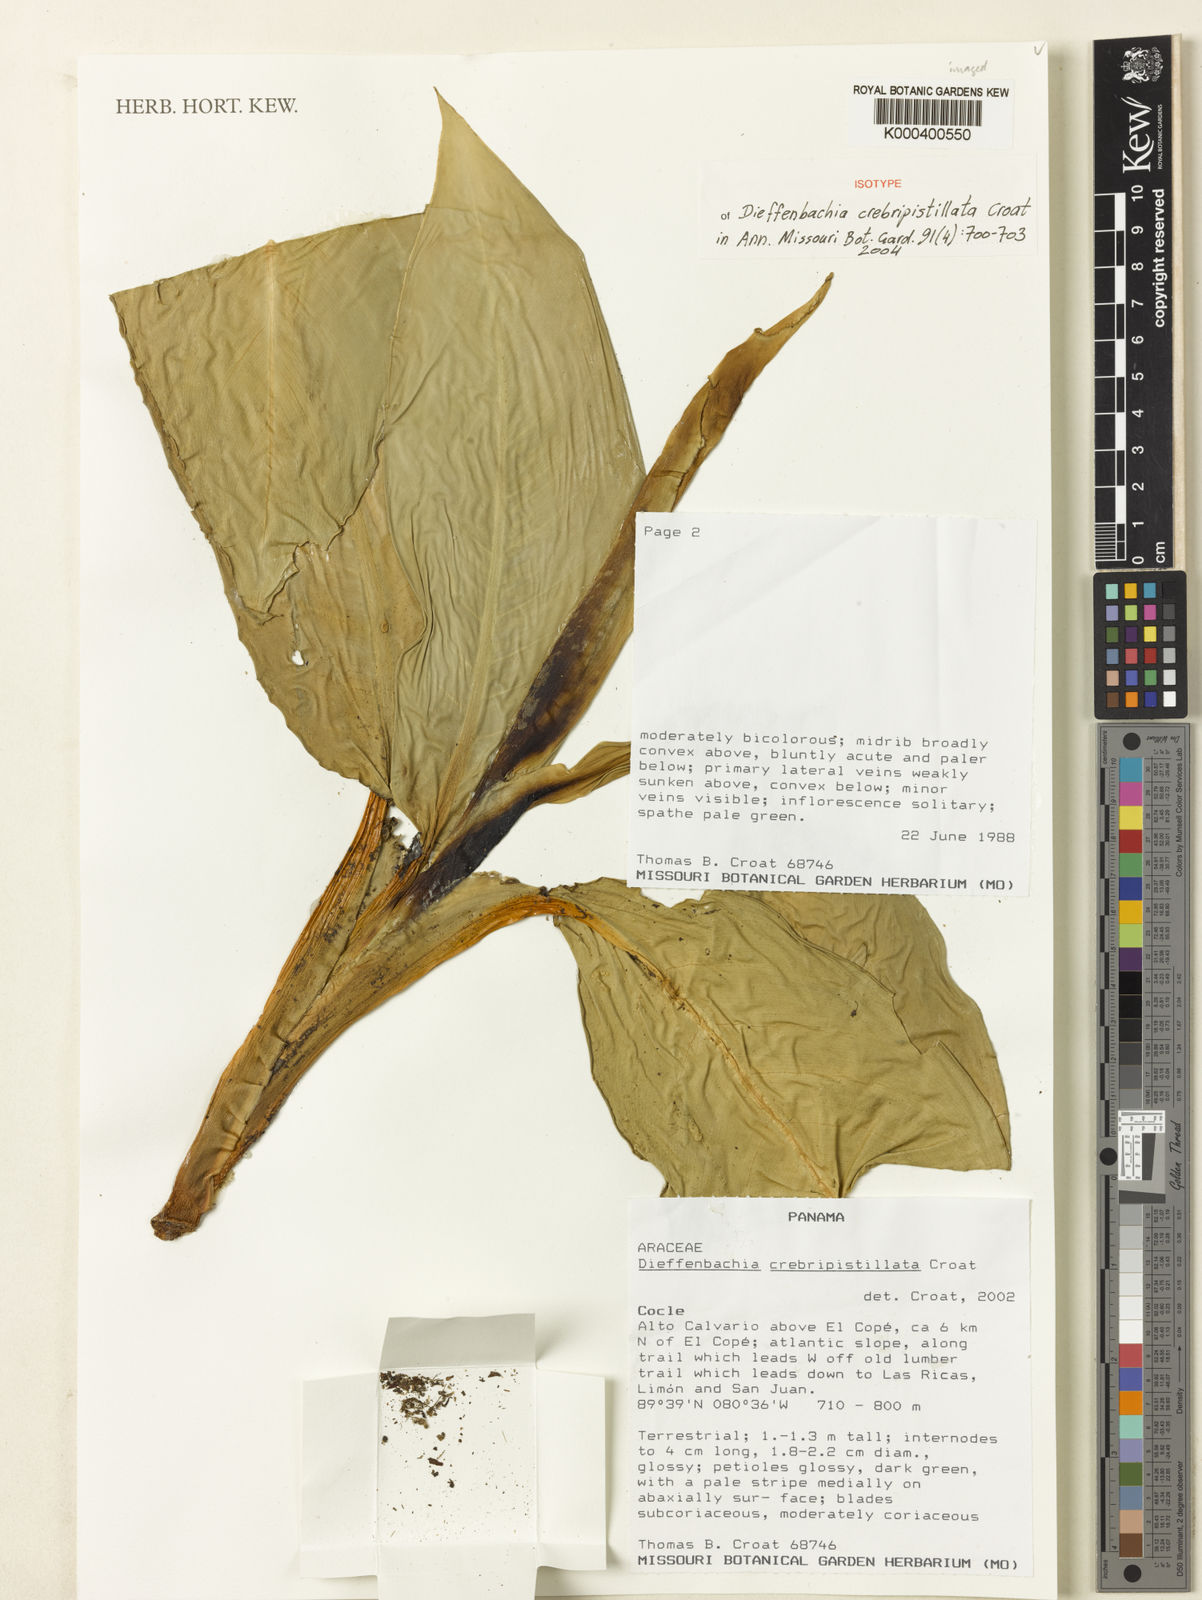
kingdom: Plantae
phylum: Tracheophyta
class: Liliopsida
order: Alismatales
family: Araceae
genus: Dieffenbachia
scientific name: Dieffenbachia crebripistillata
